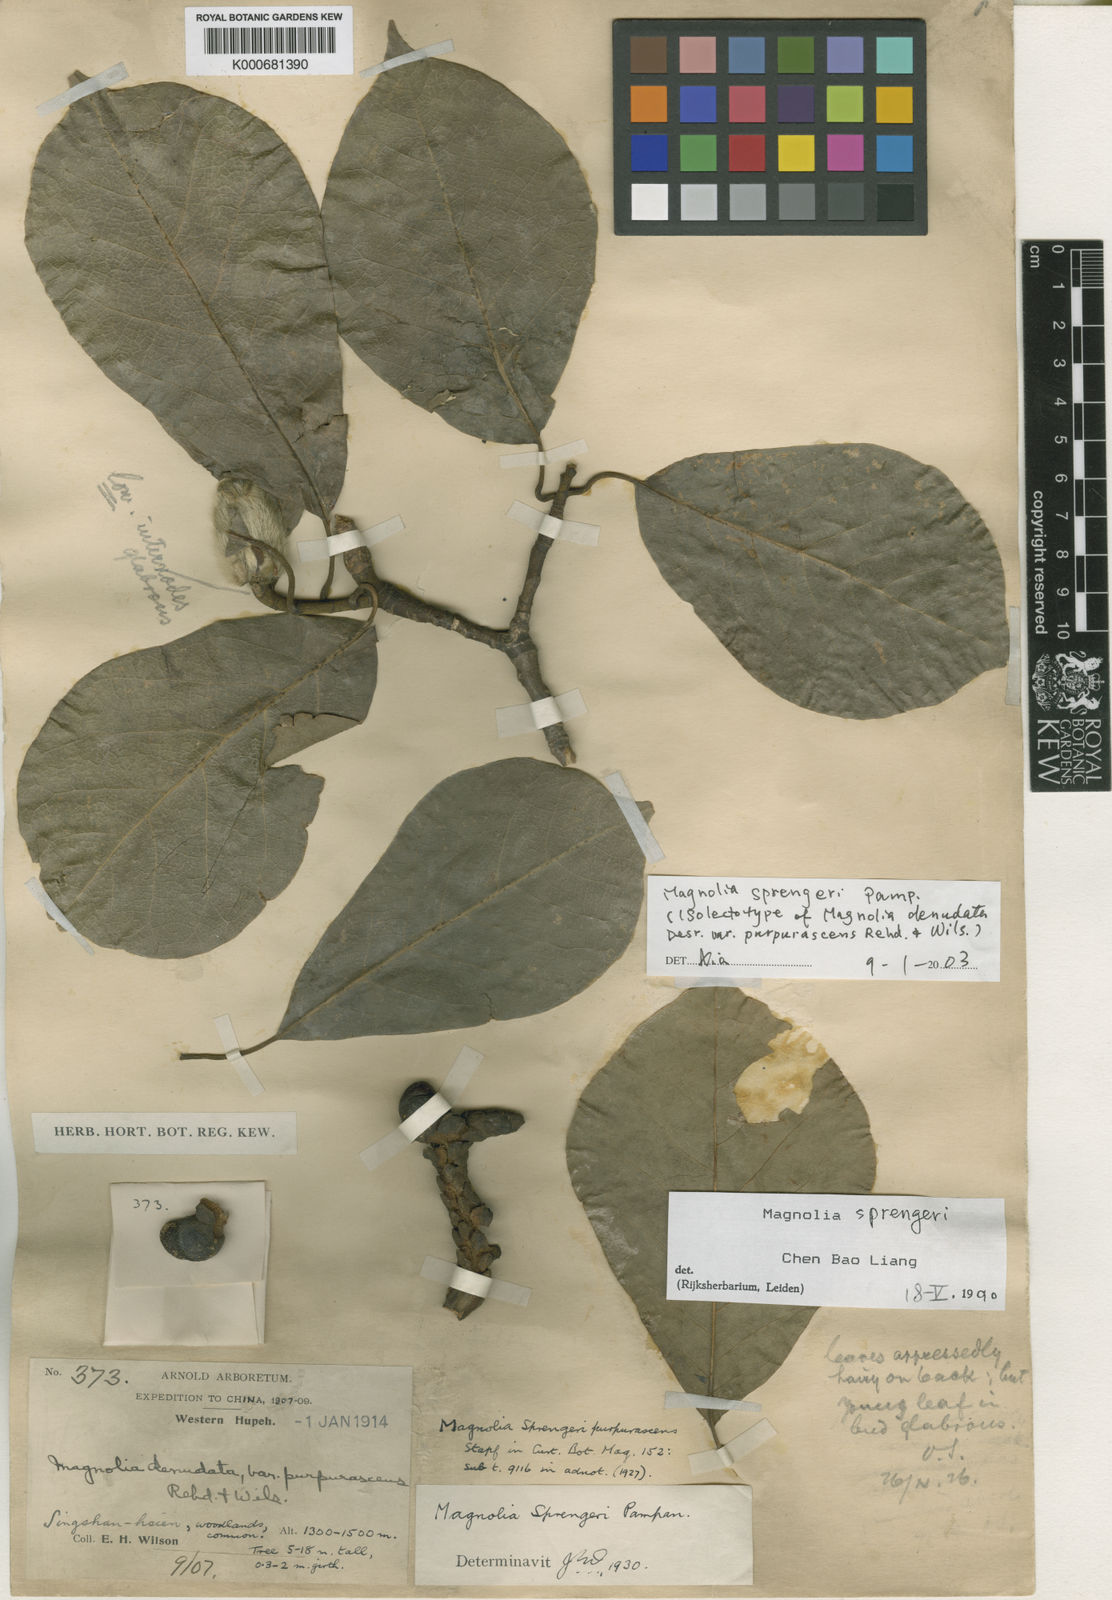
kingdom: Plantae
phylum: Tracheophyta
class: Magnoliopsida
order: Magnoliales
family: Magnoliaceae
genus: Magnolia
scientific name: Magnolia sprengeri
